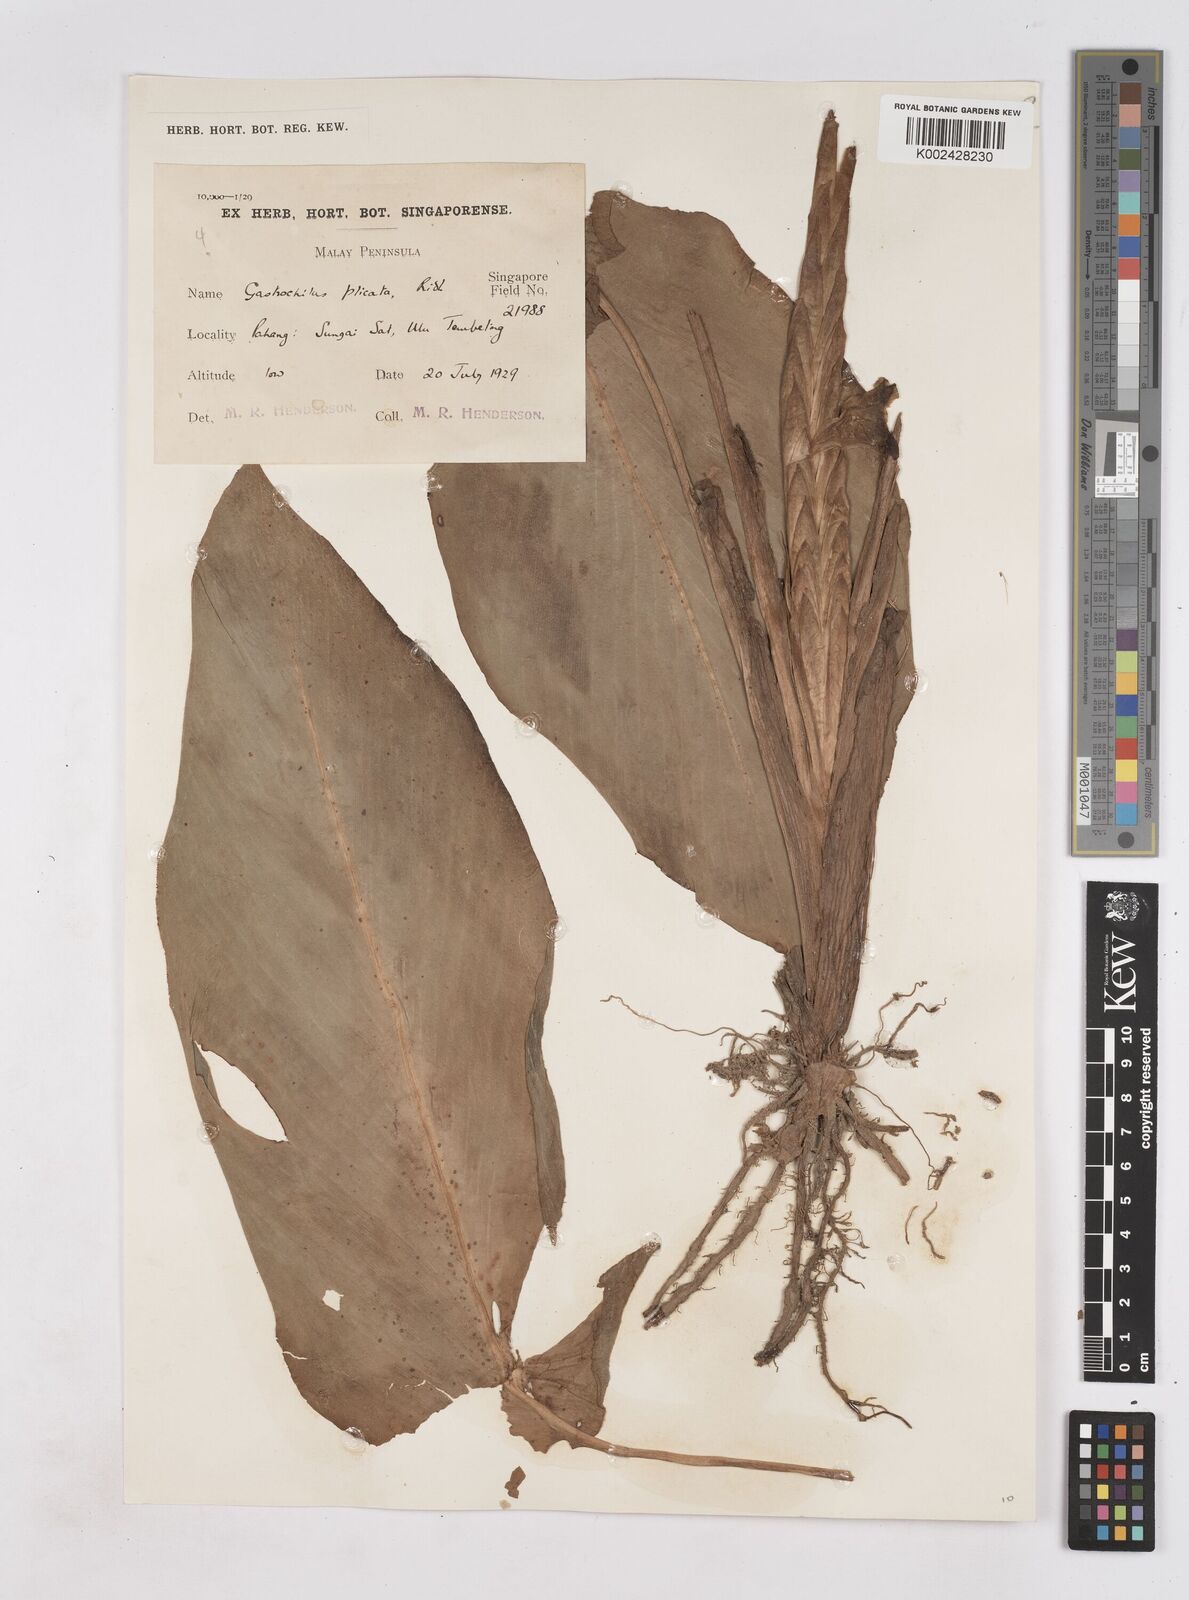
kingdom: Plantae
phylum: Tracheophyta
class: Liliopsida
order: Zingiberales
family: Zingiberaceae
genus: Boesenbergia
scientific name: Boesenbergia plicata
